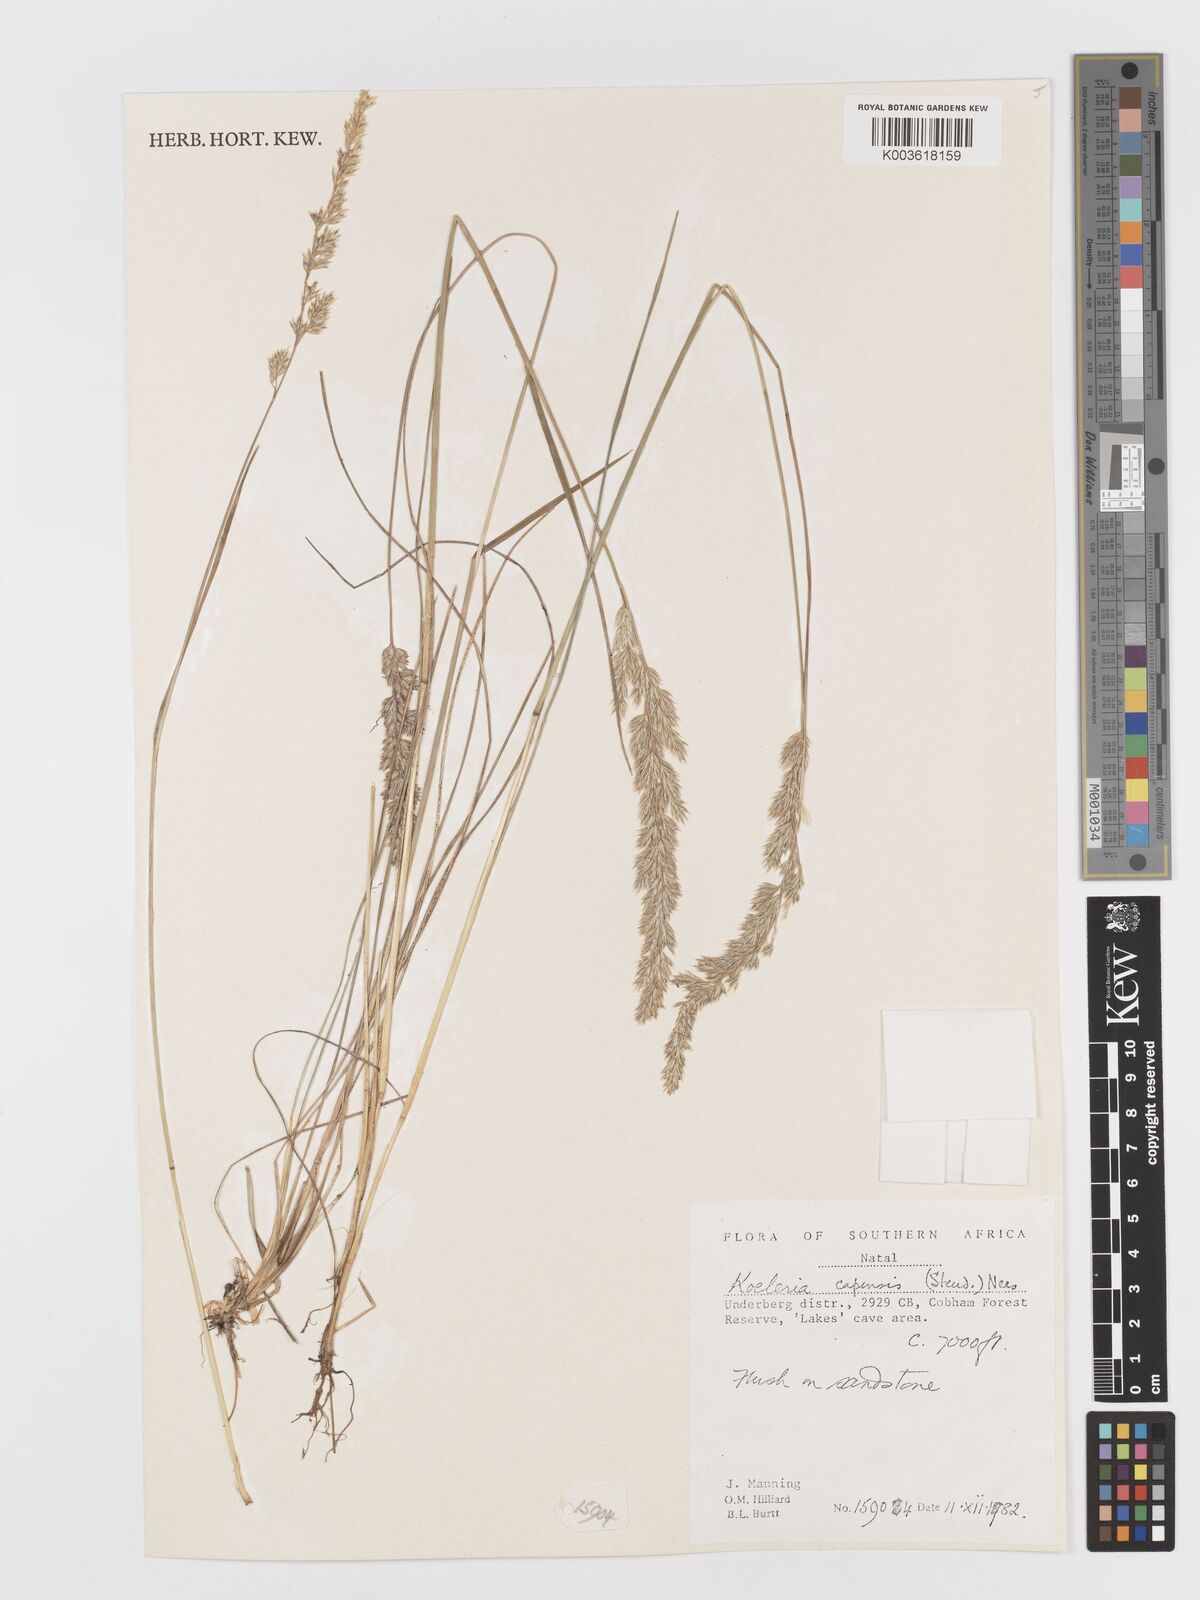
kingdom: Plantae
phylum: Tracheophyta
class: Liliopsida
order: Poales
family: Poaceae
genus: Koeleria
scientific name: Koeleria capensis
